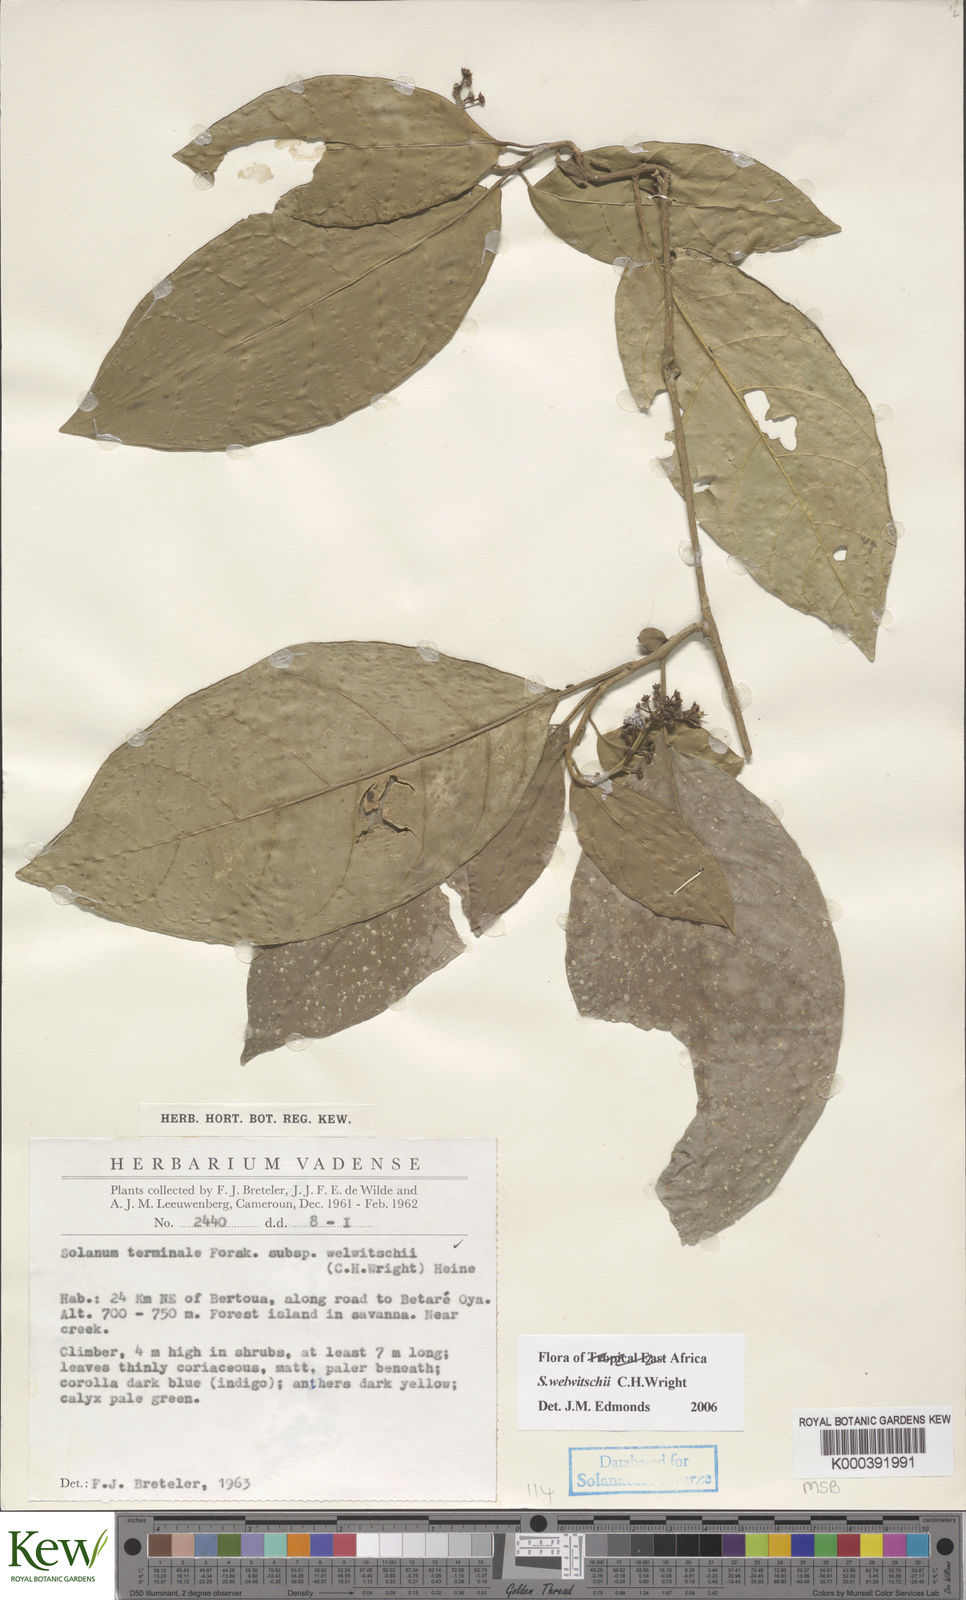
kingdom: Plantae
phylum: Tracheophyta
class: Magnoliopsida
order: Solanales
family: Solanaceae
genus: Solanum
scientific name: Solanum terminale
